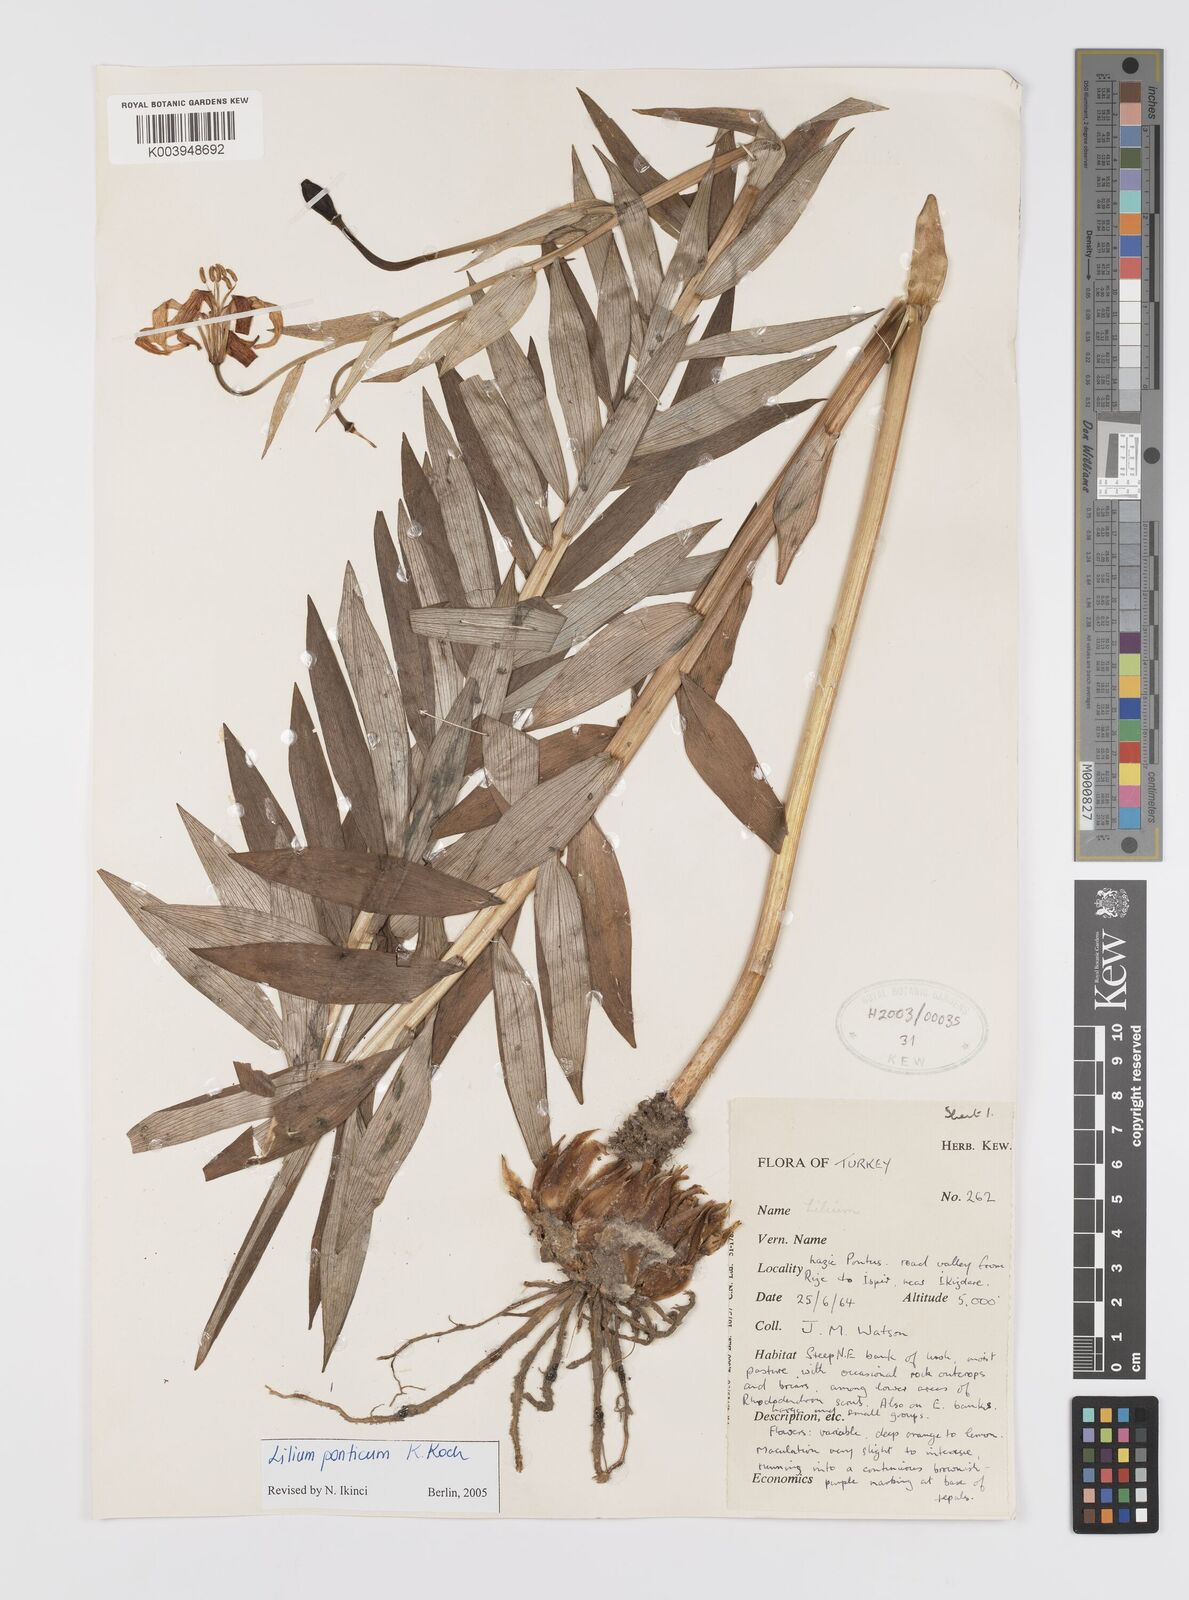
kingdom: Plantae
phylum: Tracheophyta
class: Liliopsida
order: Liliales
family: Liliaceae
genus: Lilium
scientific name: Lilium ponticum
